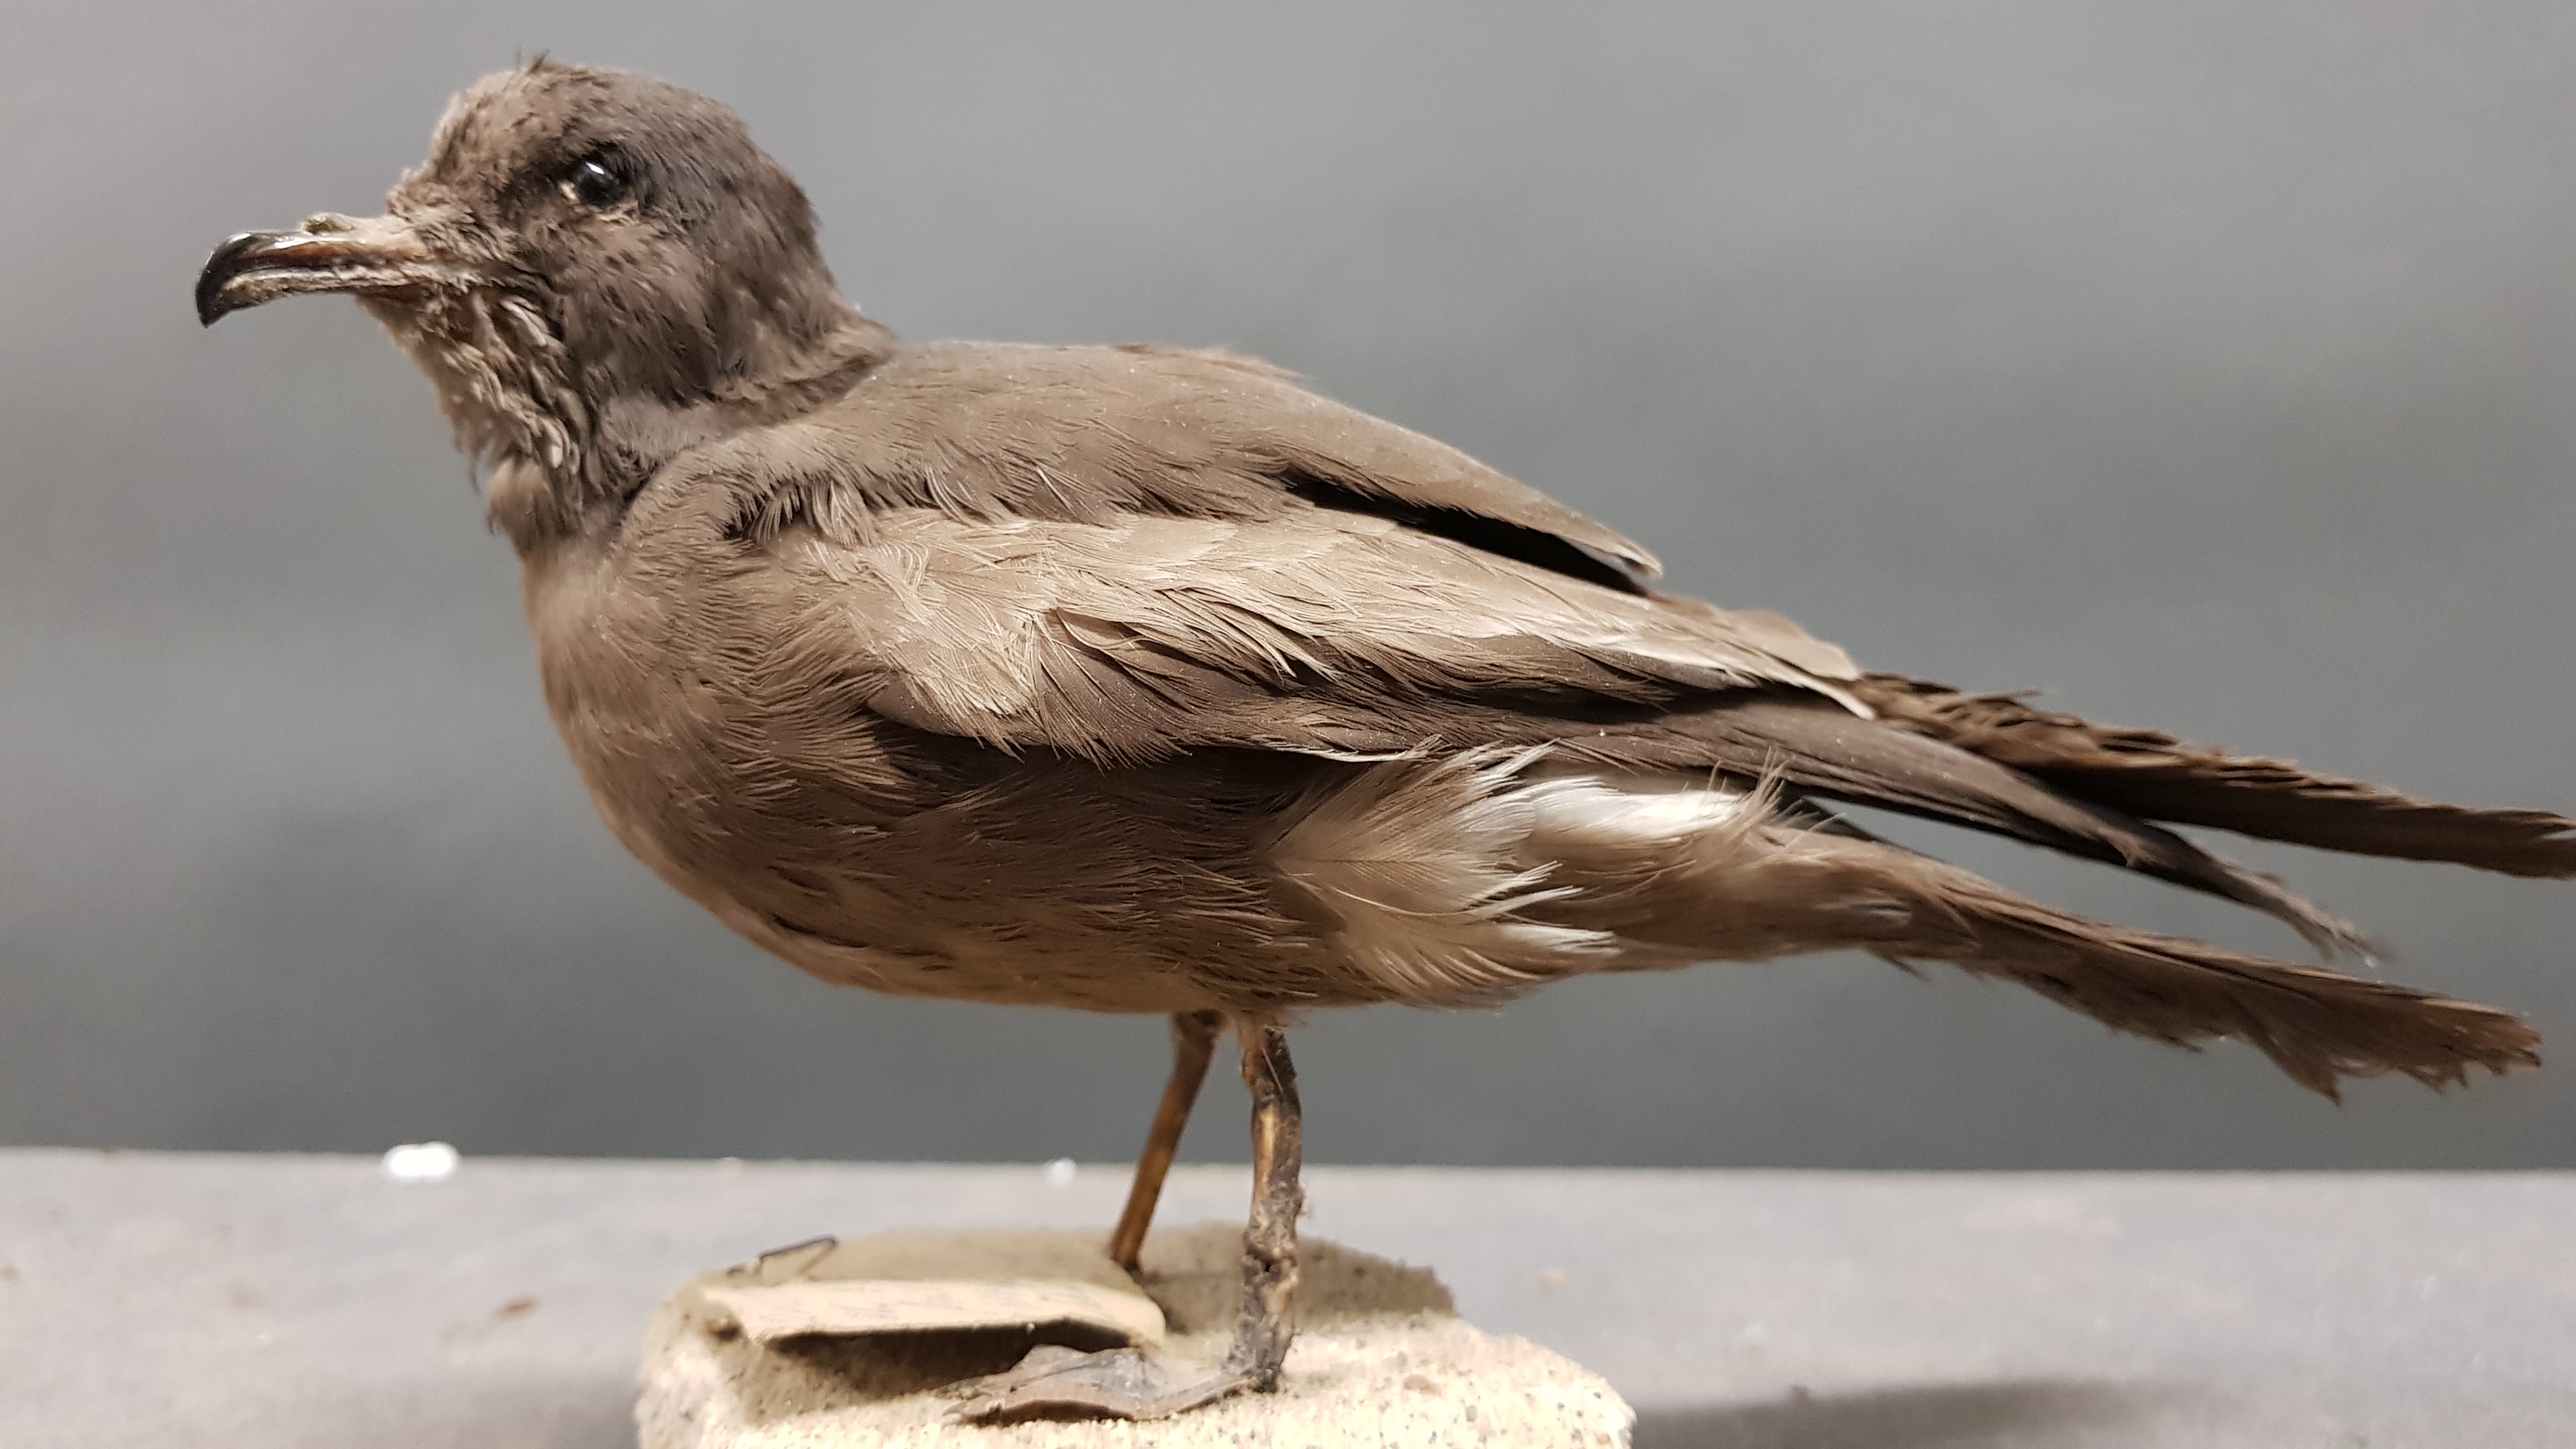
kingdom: Animalia
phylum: Chordata
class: Aves
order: Procellariiformes
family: Hydrobatidae
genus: Oceanodroma
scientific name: Oceanodroma leucorhoa
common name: Leach's storm-petrel
